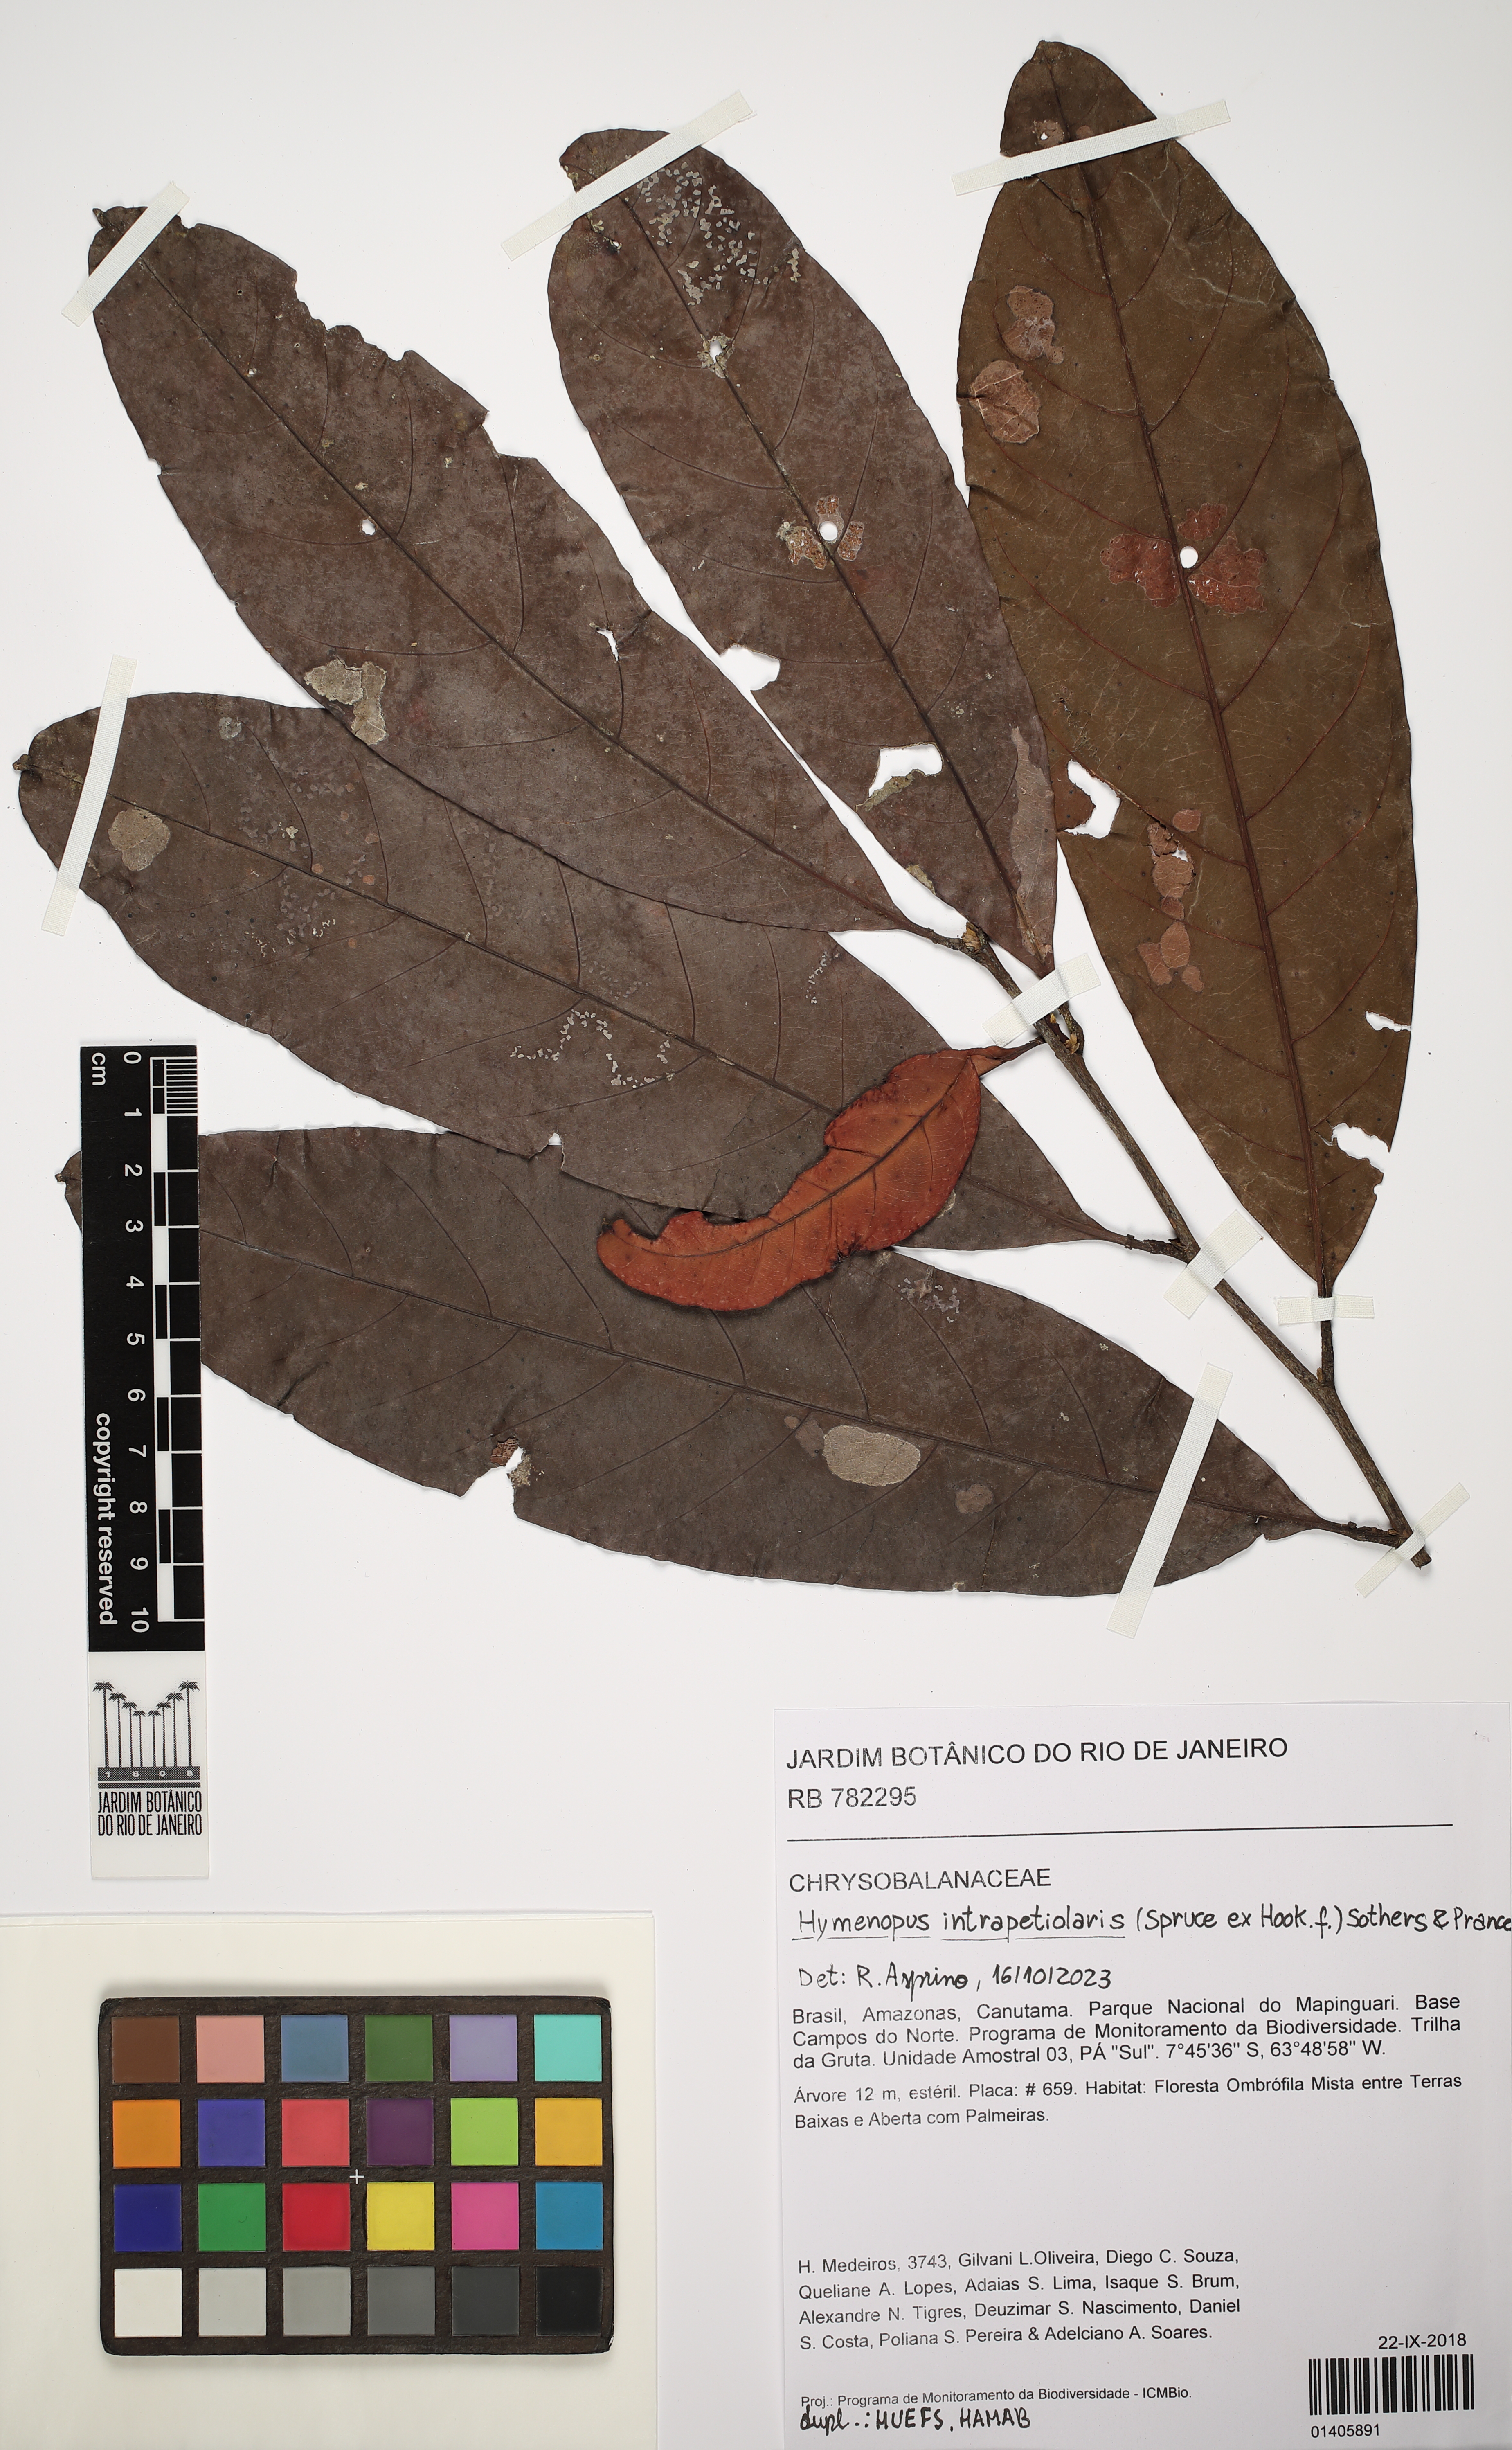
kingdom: Plantae
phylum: Tracheophyta
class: Magnoliopsida
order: Malpighiales
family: Chrysobalanaceae
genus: Hymenopus
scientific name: Hymenopus intrapetiolaris
